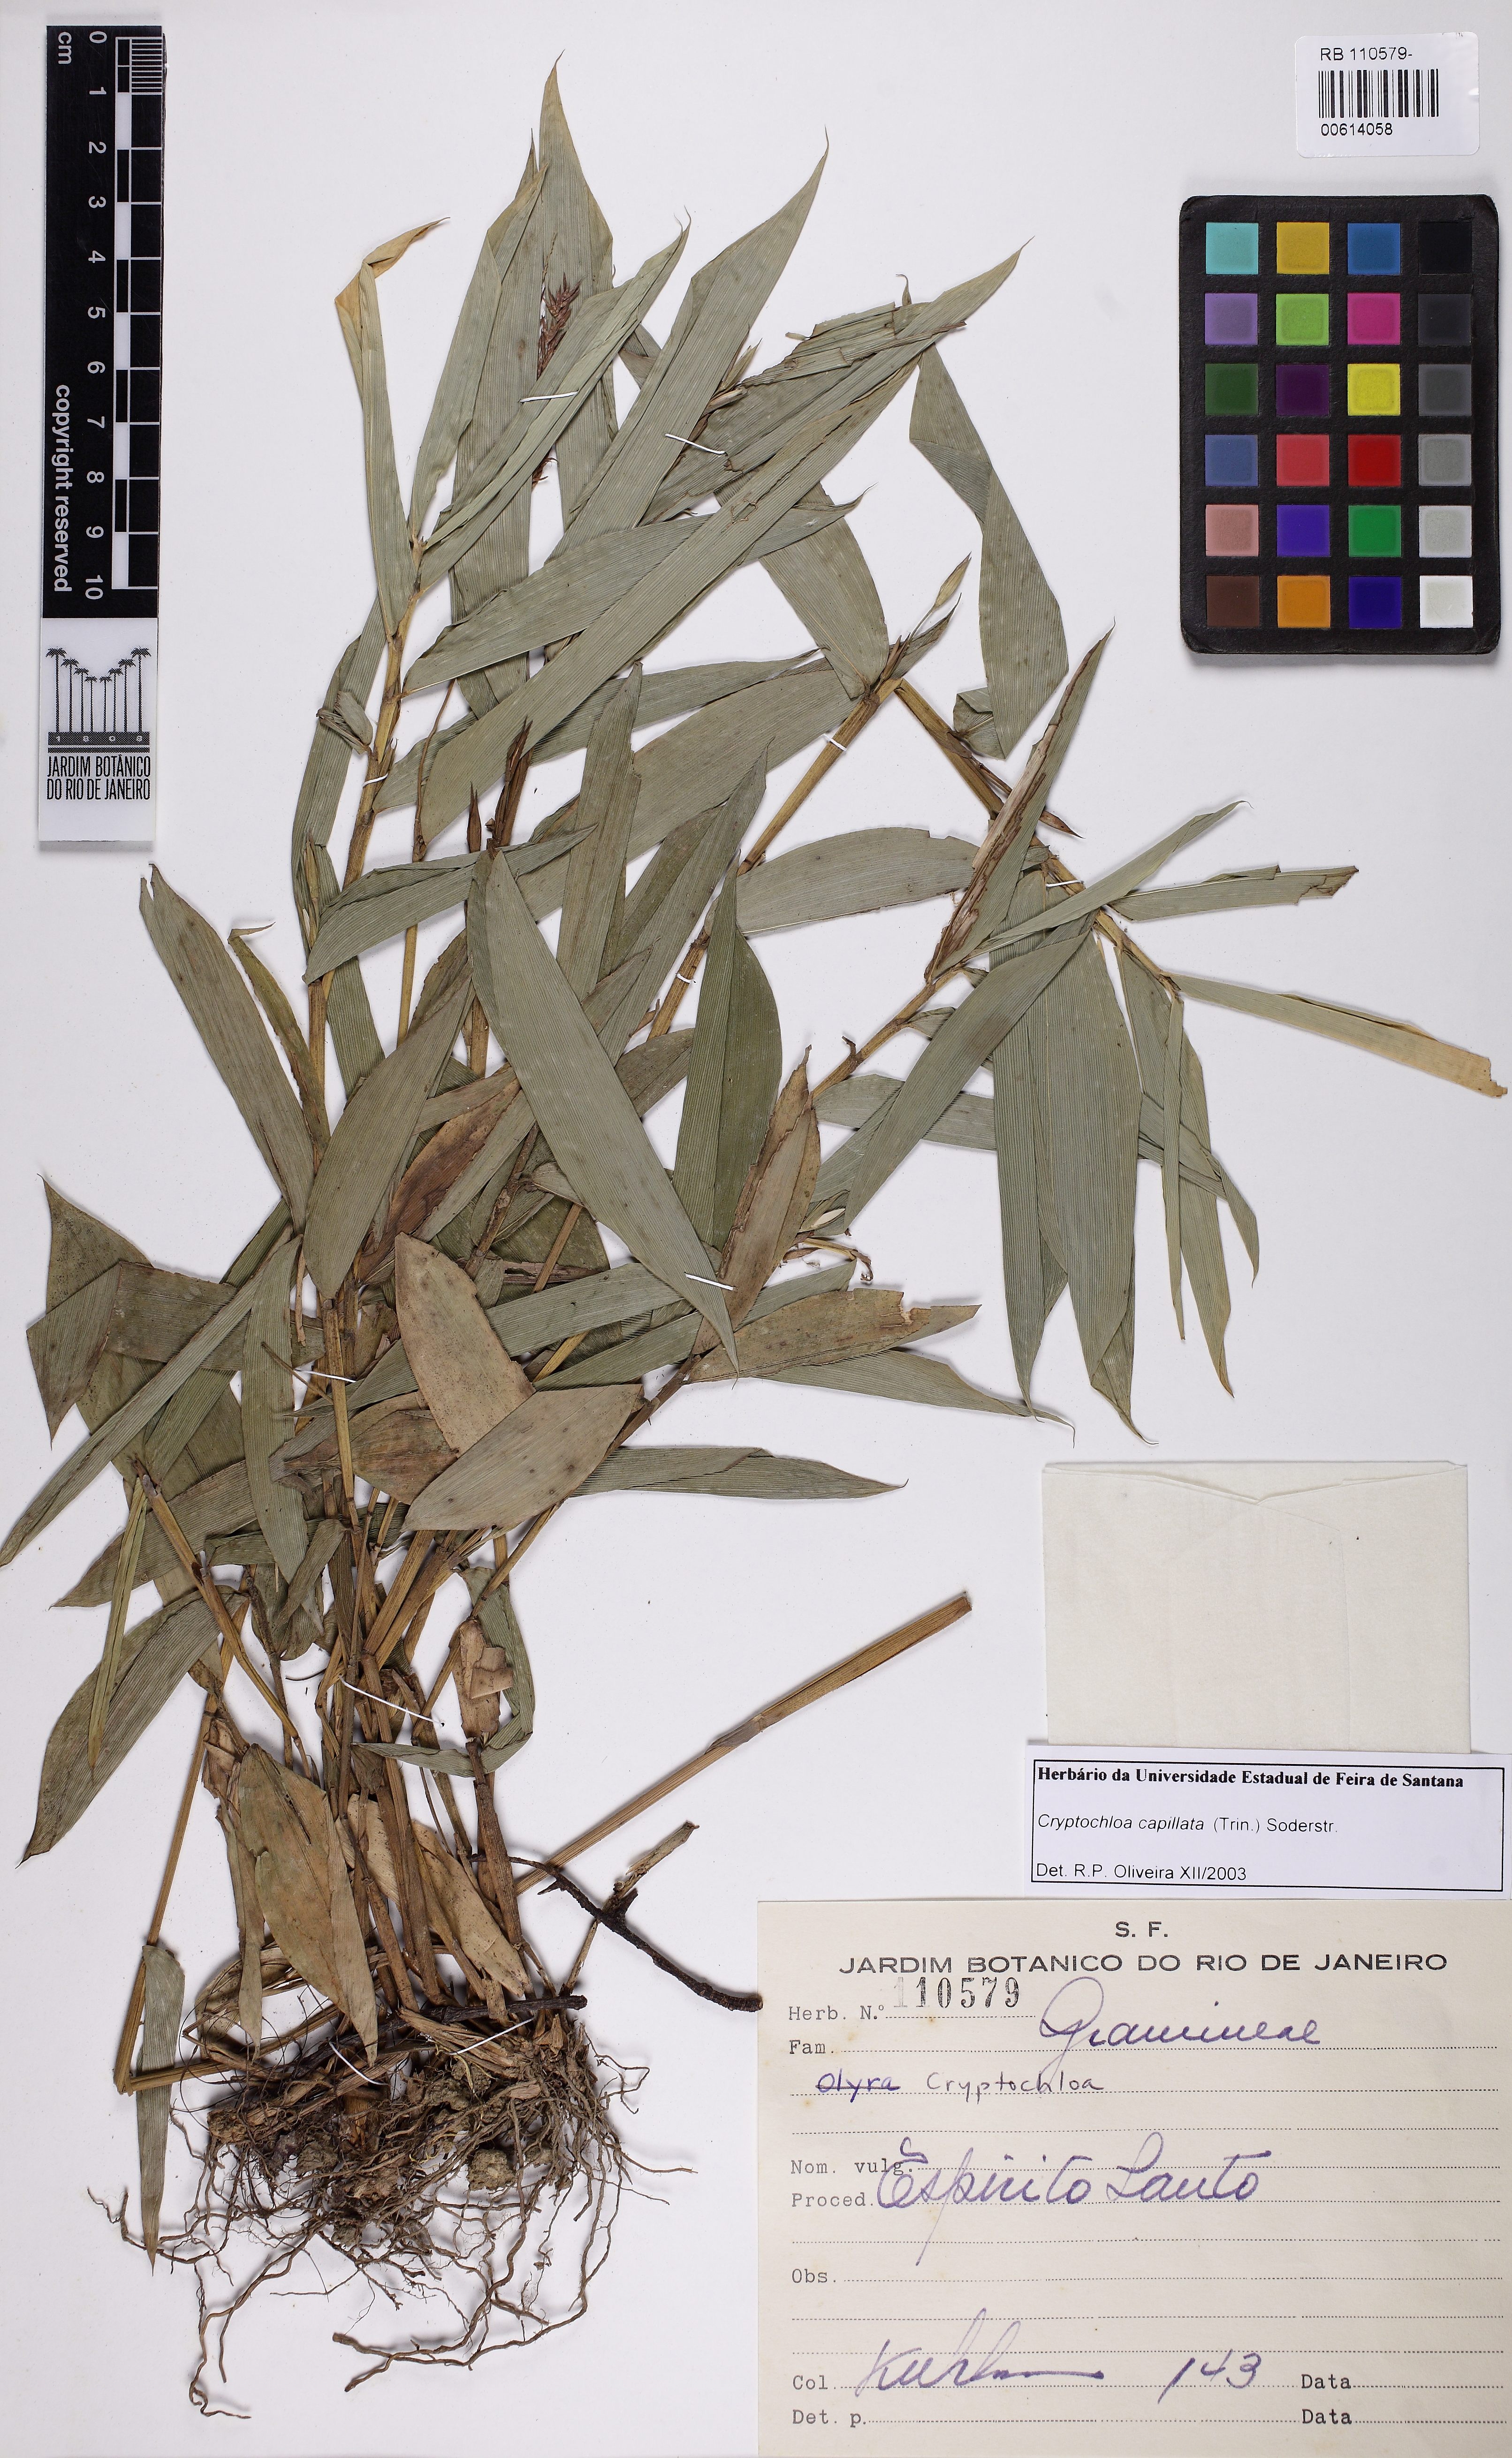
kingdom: Plantae
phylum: Tracheophyta
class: Liliopsida
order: Poales
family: Poaceae
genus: Cryptochloa
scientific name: Cryptochloa capillata
